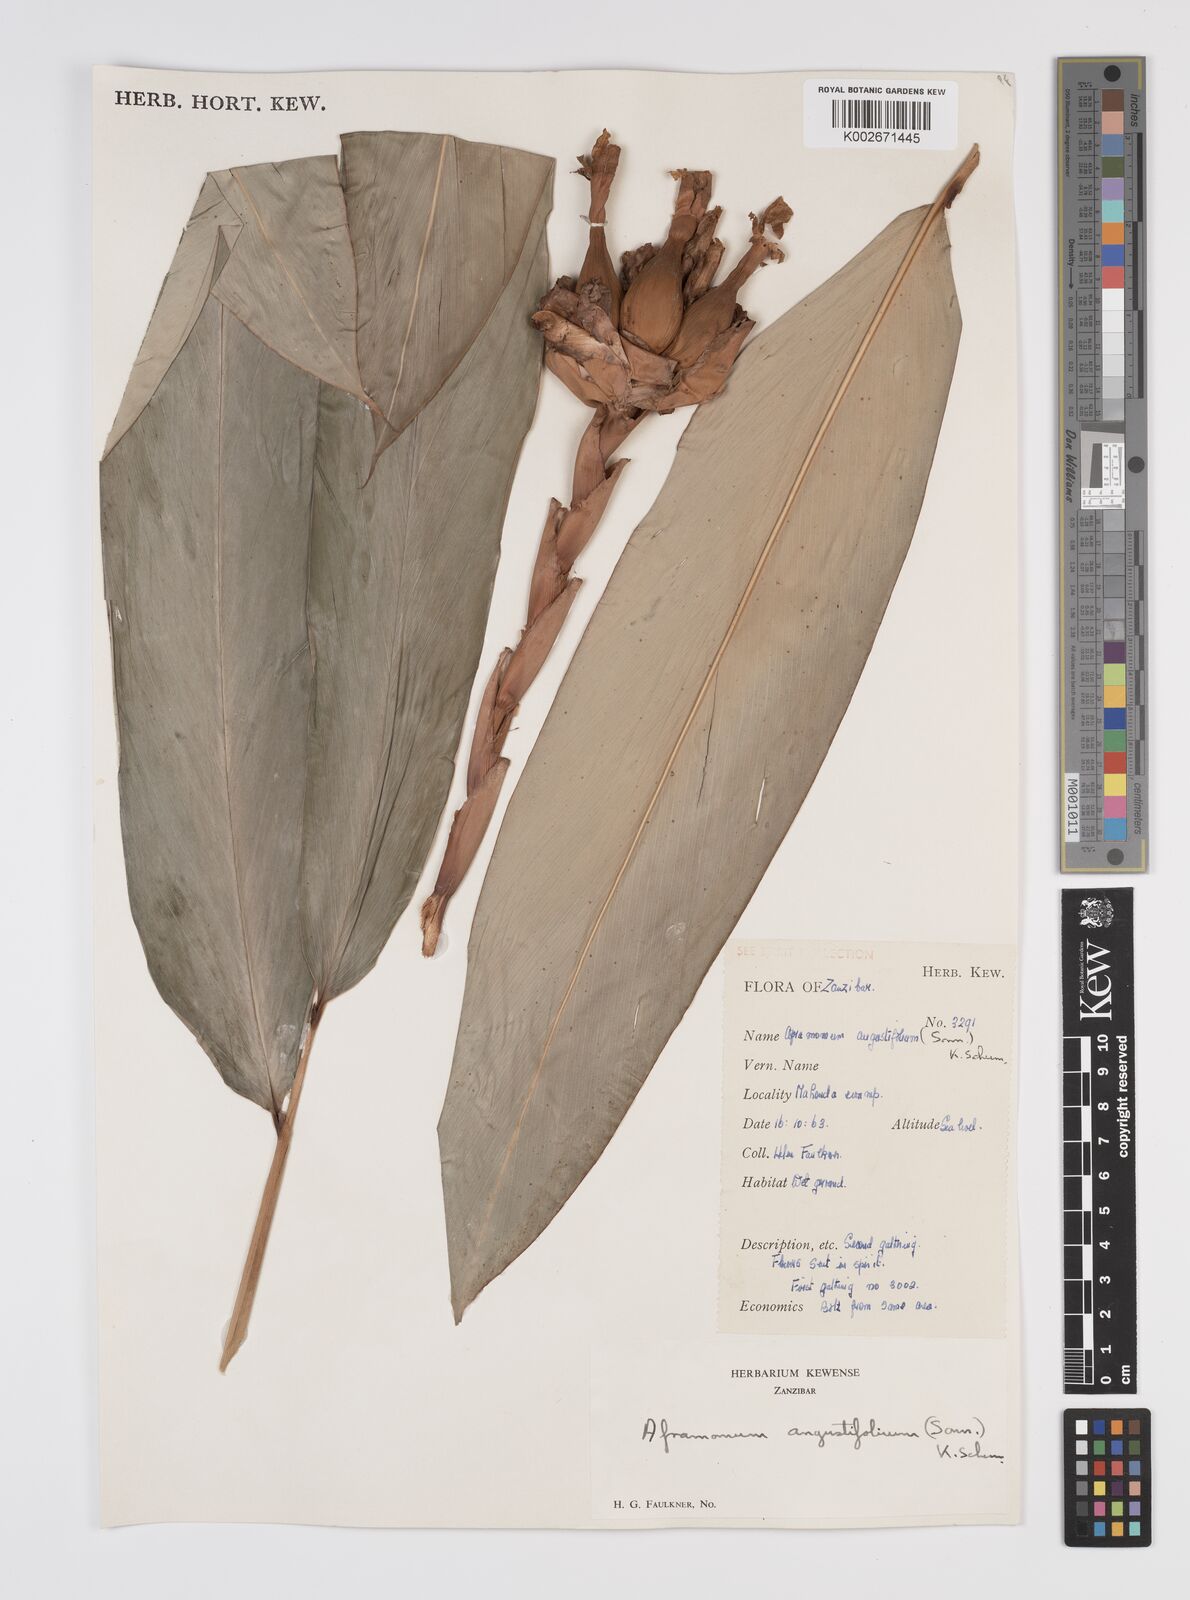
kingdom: Plantae
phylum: Tracheophyta
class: Liliopsida
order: Zingiberales
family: Zingiberaceae
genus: Aframomum
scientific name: Aframomum angustifolium
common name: Guinea grains
